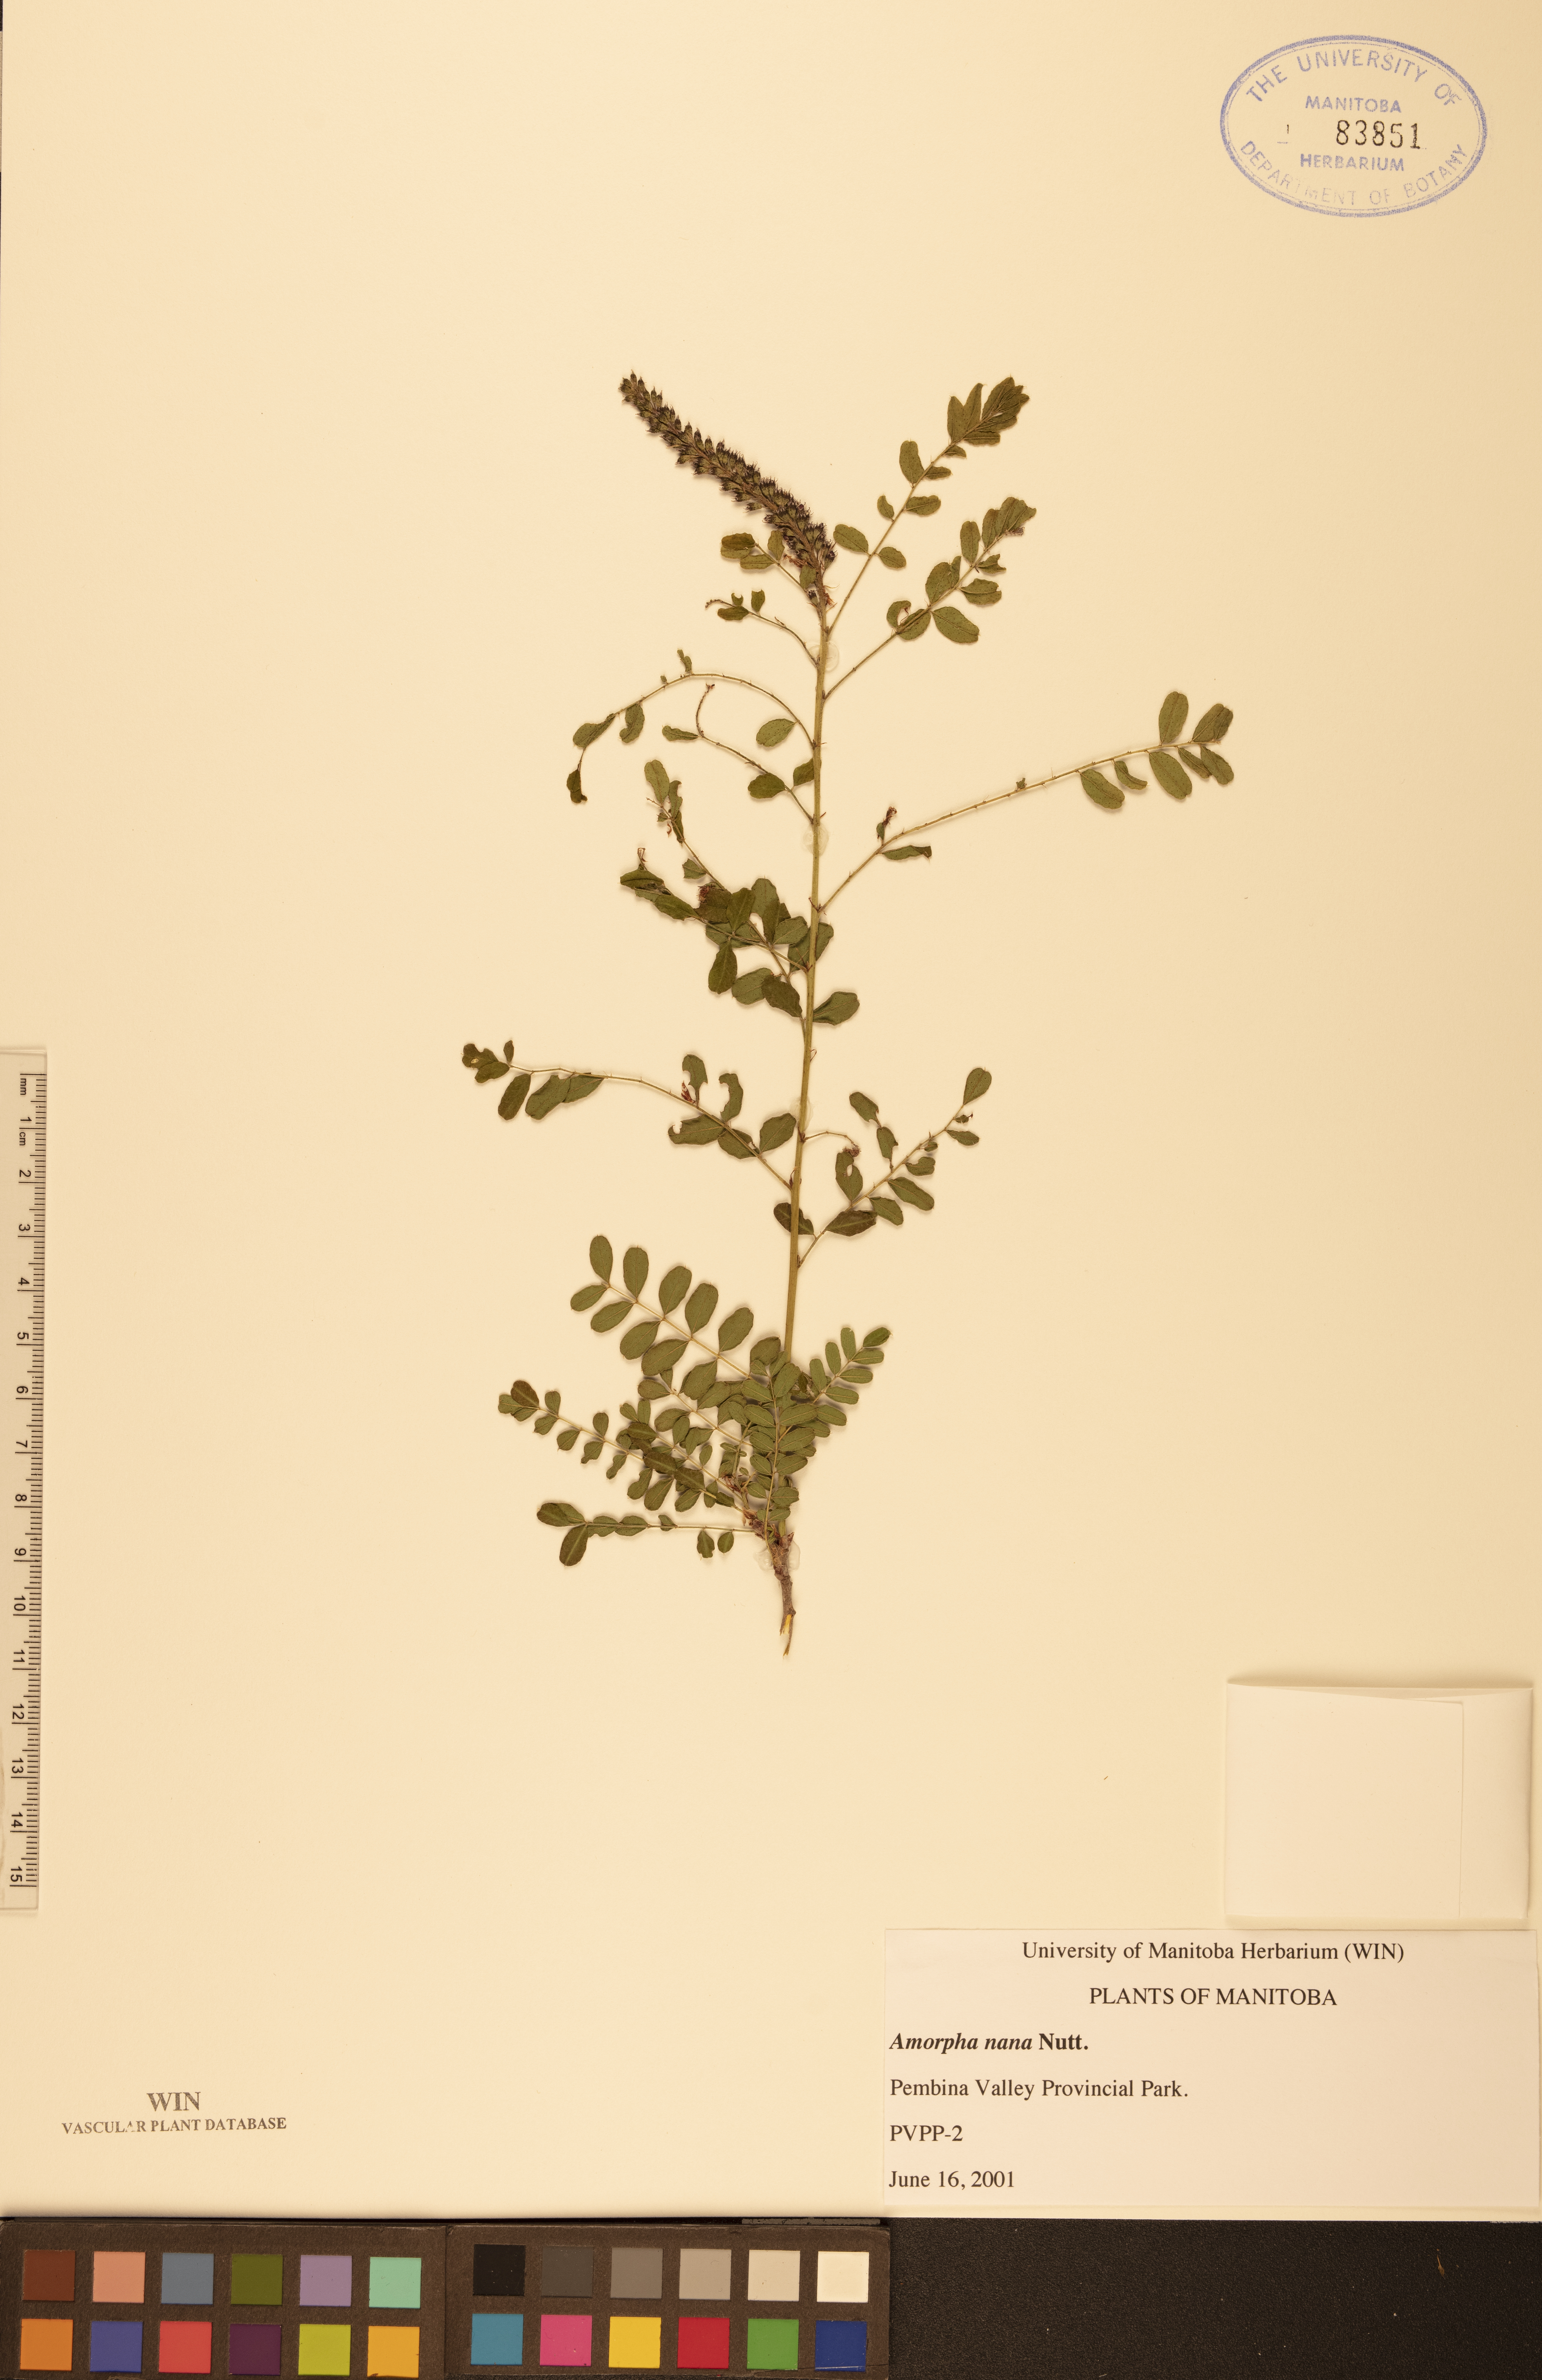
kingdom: Plantae
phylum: Tracheophyta
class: Magnoliopsida
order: Fabales
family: Fabaceae
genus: Amorpha
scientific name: Amorpha nana
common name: Fragrant false indigo
